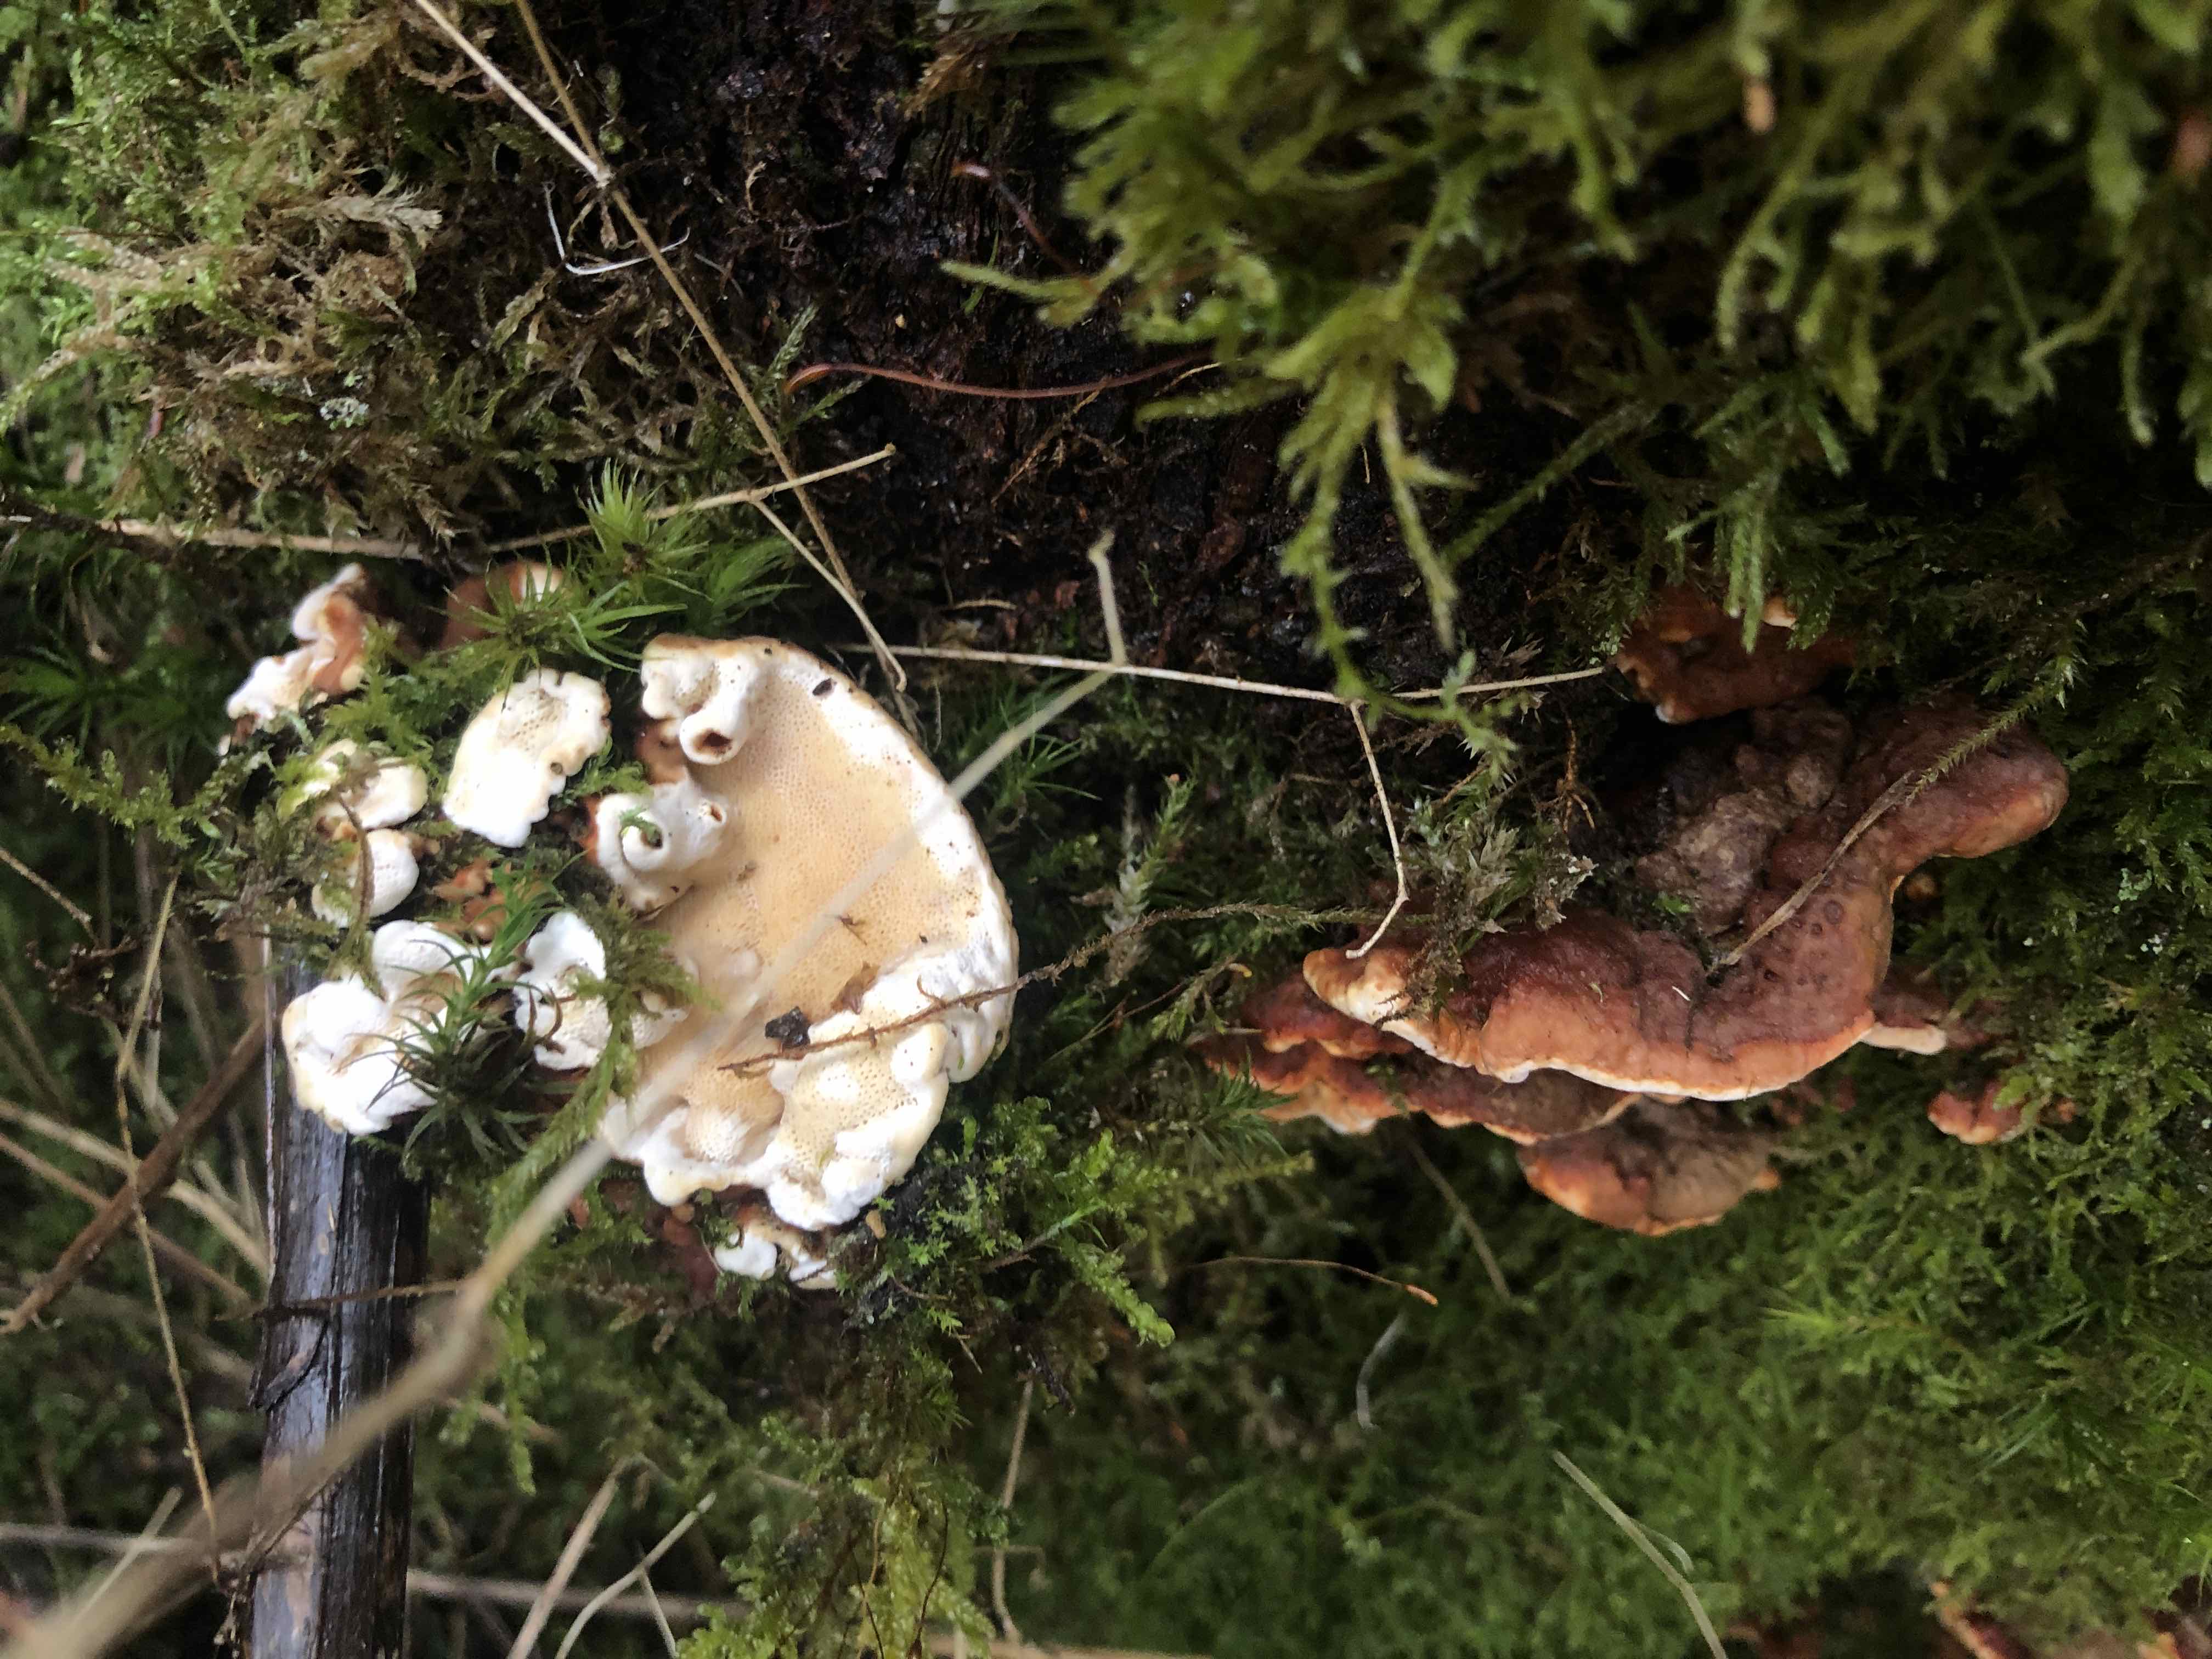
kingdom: Fungi
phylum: Basidiomycota
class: Agaricomycetes
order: Russulales
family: Bondarzewiaceae
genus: Heterobasidion
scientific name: Heterobasidion annosum
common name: almindelig rodfordærver
